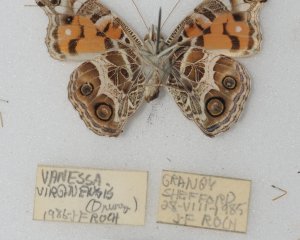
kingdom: Animalia
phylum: Arthropoda
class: Insecta
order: Lepidoptera
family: Nymphalidae
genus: Vanessa
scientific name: Vanessa virginiensis
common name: American Lady
